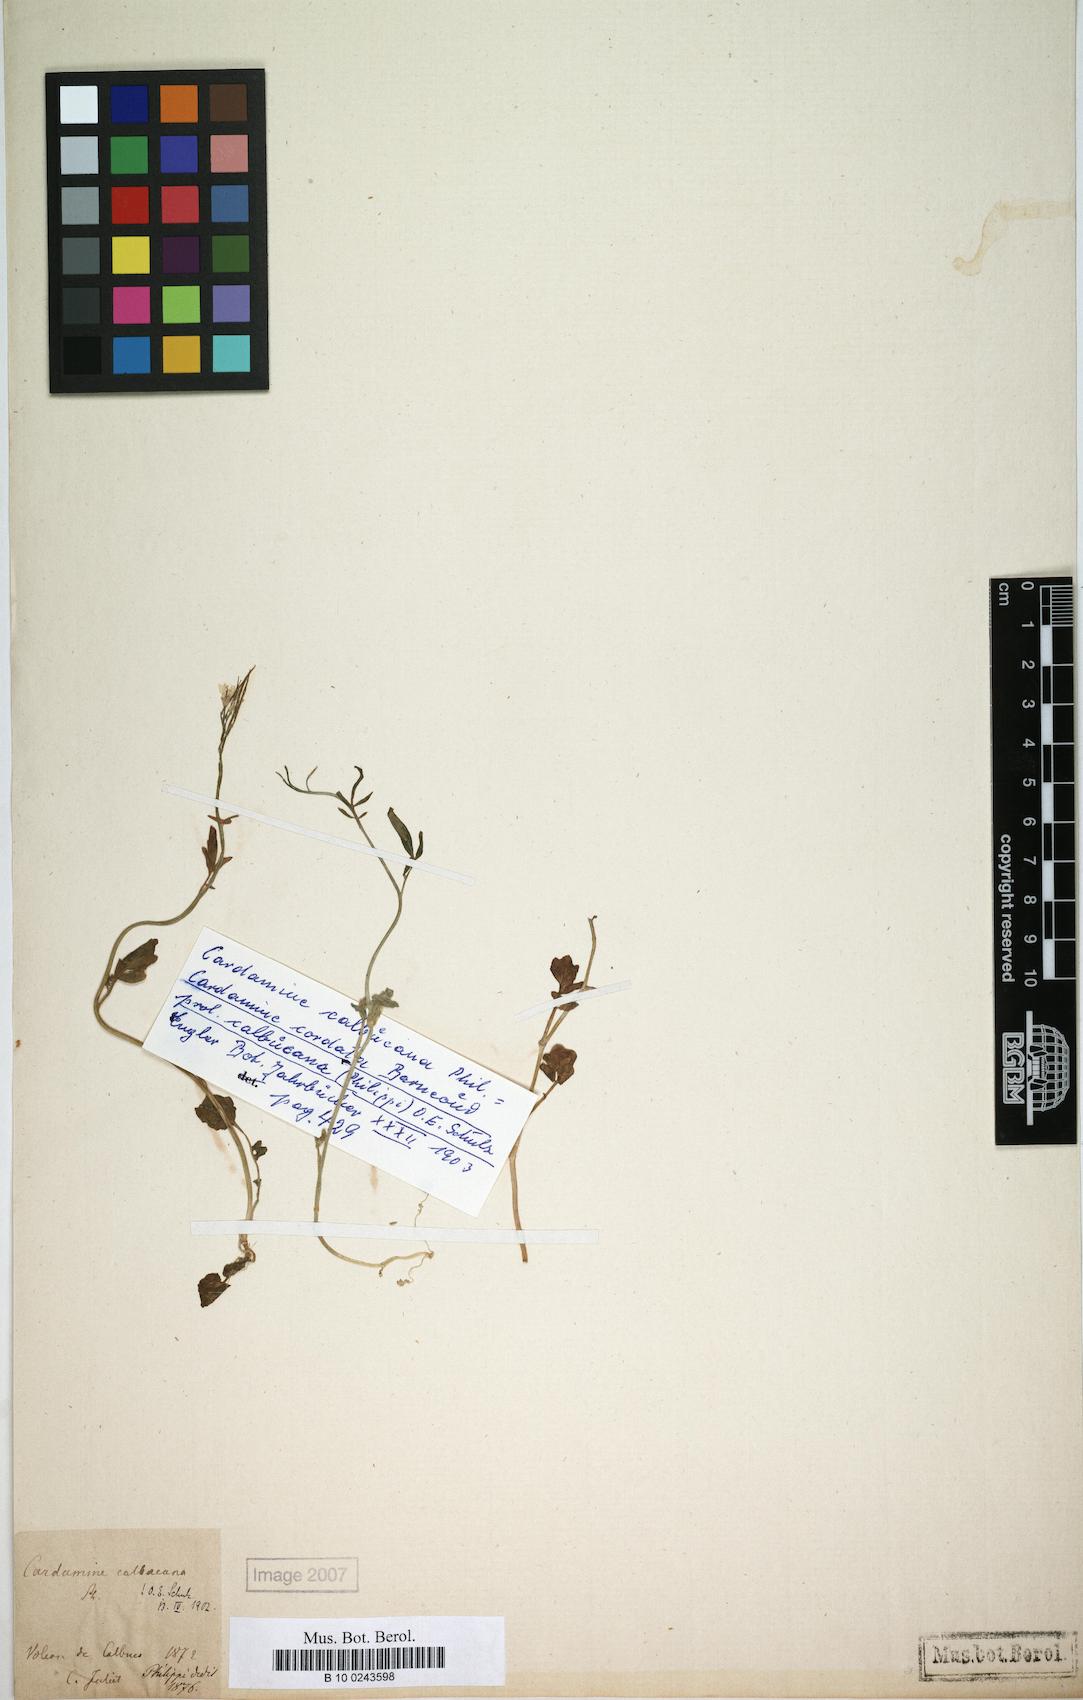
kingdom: Plantae
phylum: Tracheophyta
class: Magnoliopsida
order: Brassicales
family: Brassicaceae
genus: Cardamine
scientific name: Cardamine cordata
